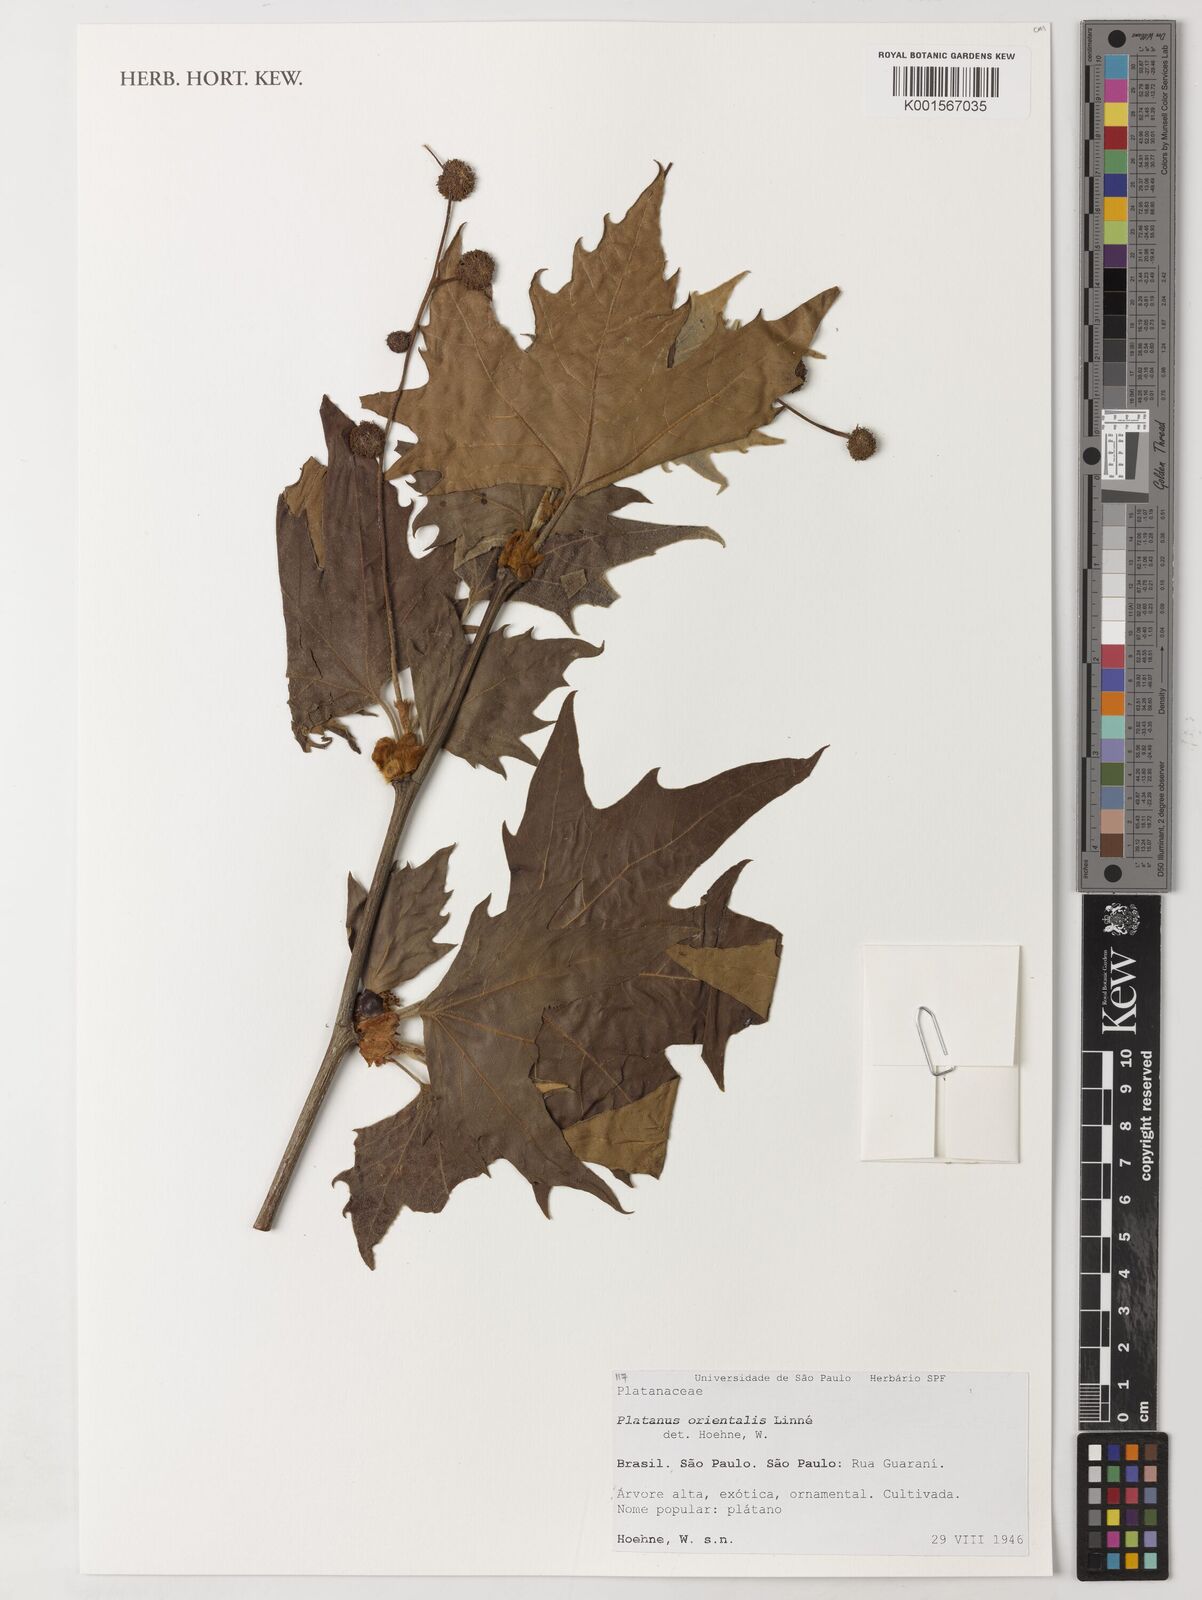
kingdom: Plantae
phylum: Tracheophyta
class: Magnoliopsida
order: Proteales
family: Platanaceae
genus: Platanus
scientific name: Platanus orientalis
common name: Oriental plane
